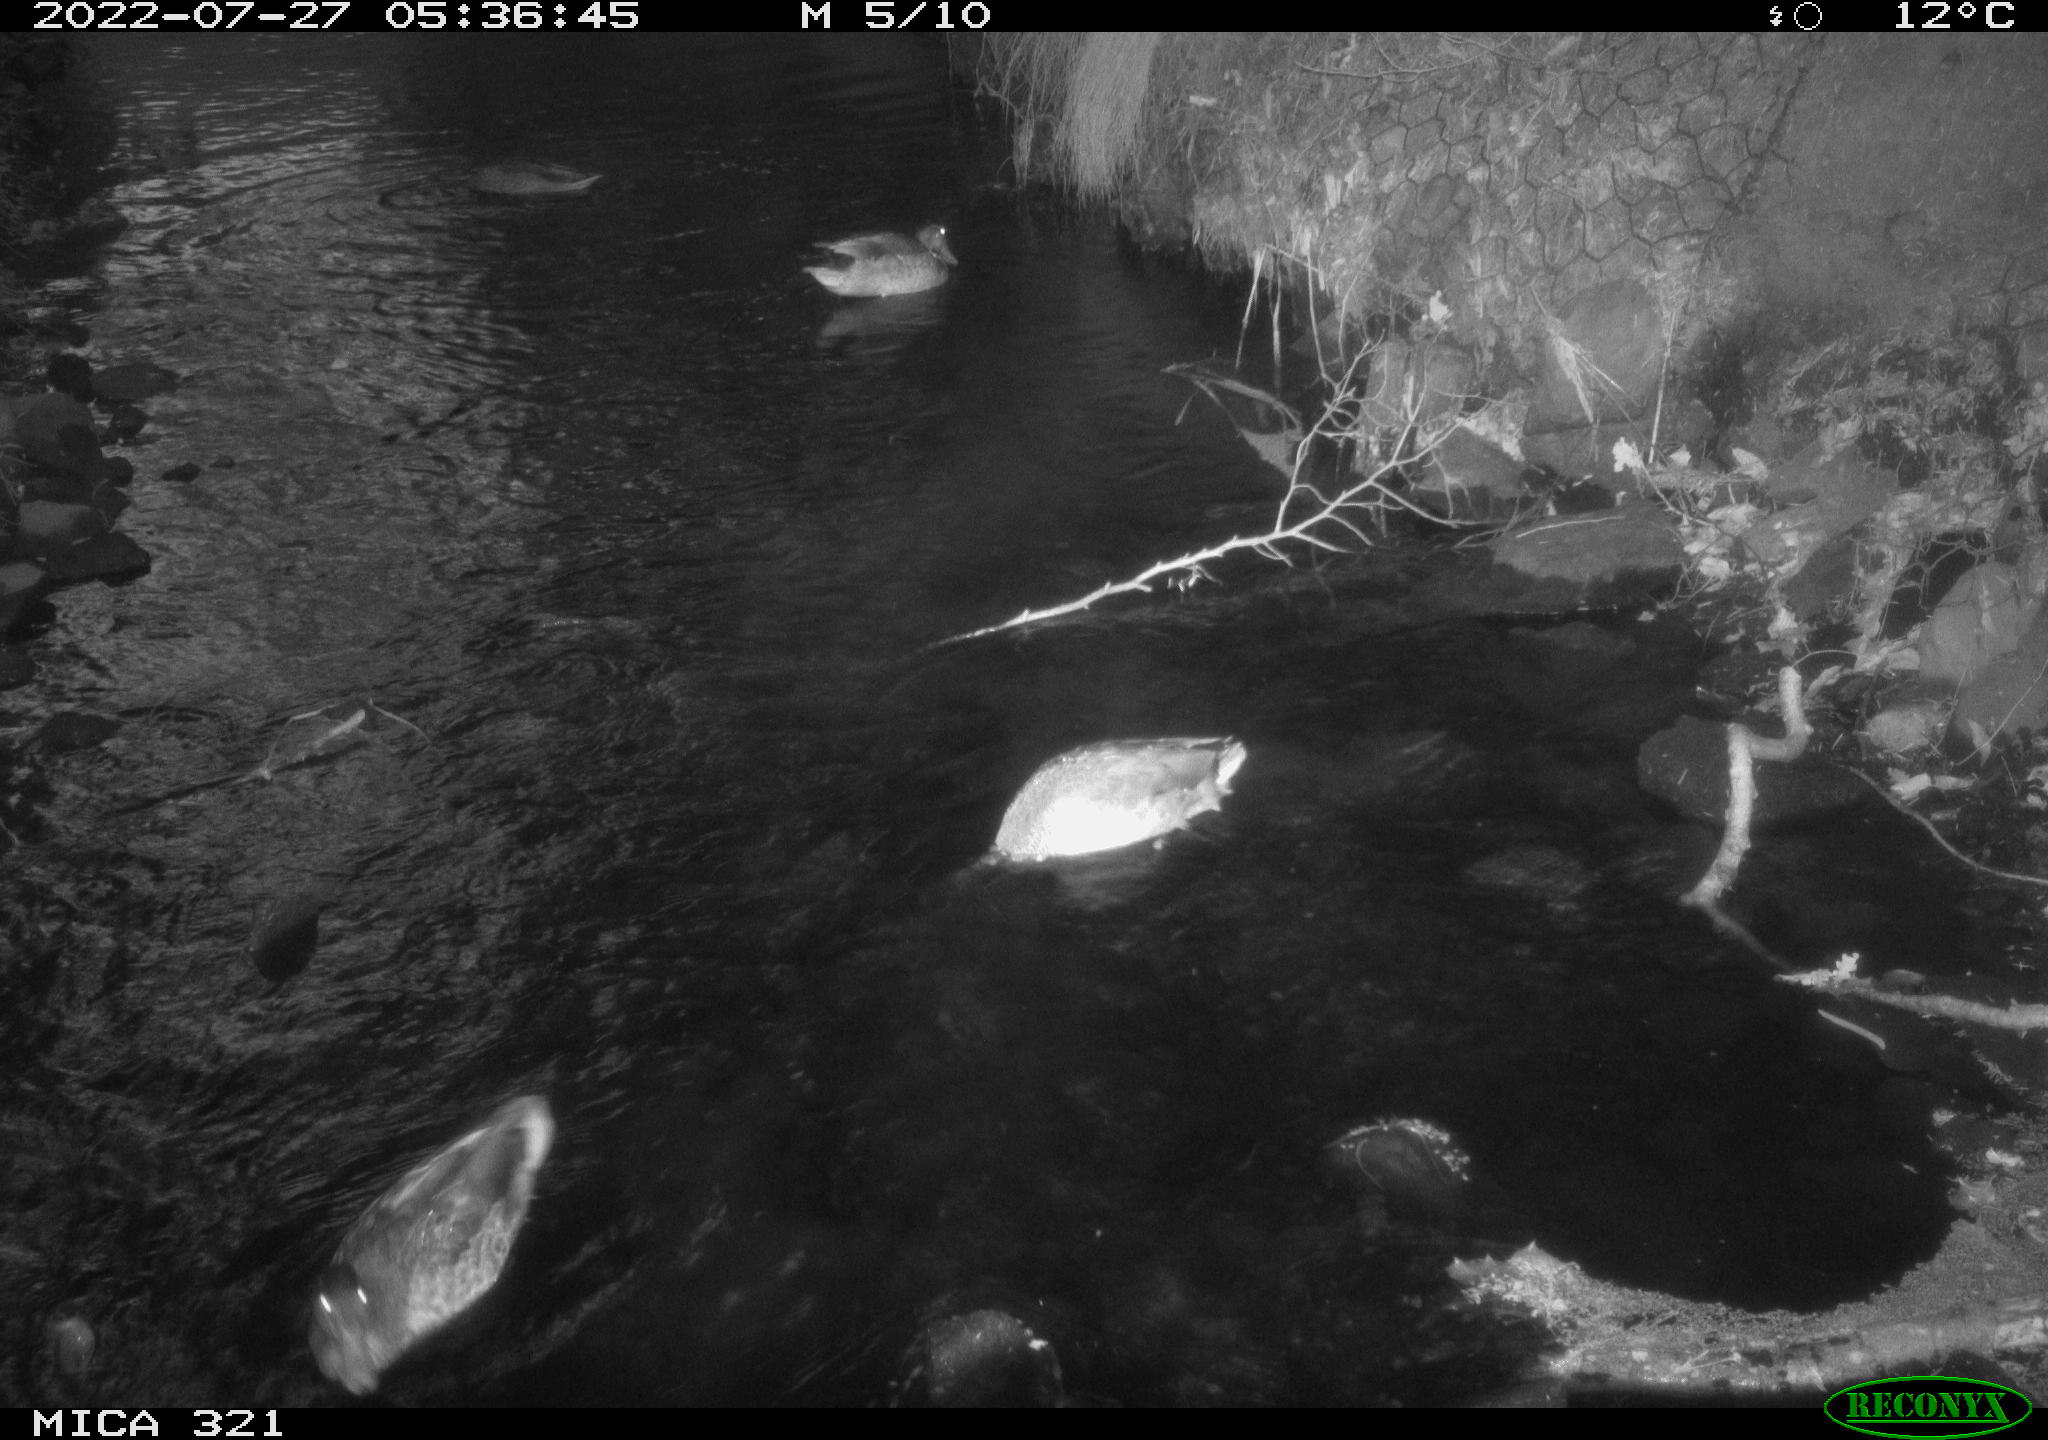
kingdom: Animalia
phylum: Chordata
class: Aves
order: Anseriformes
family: Anatidae
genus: Anas
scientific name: Anas platyrhynchos
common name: Mallard
